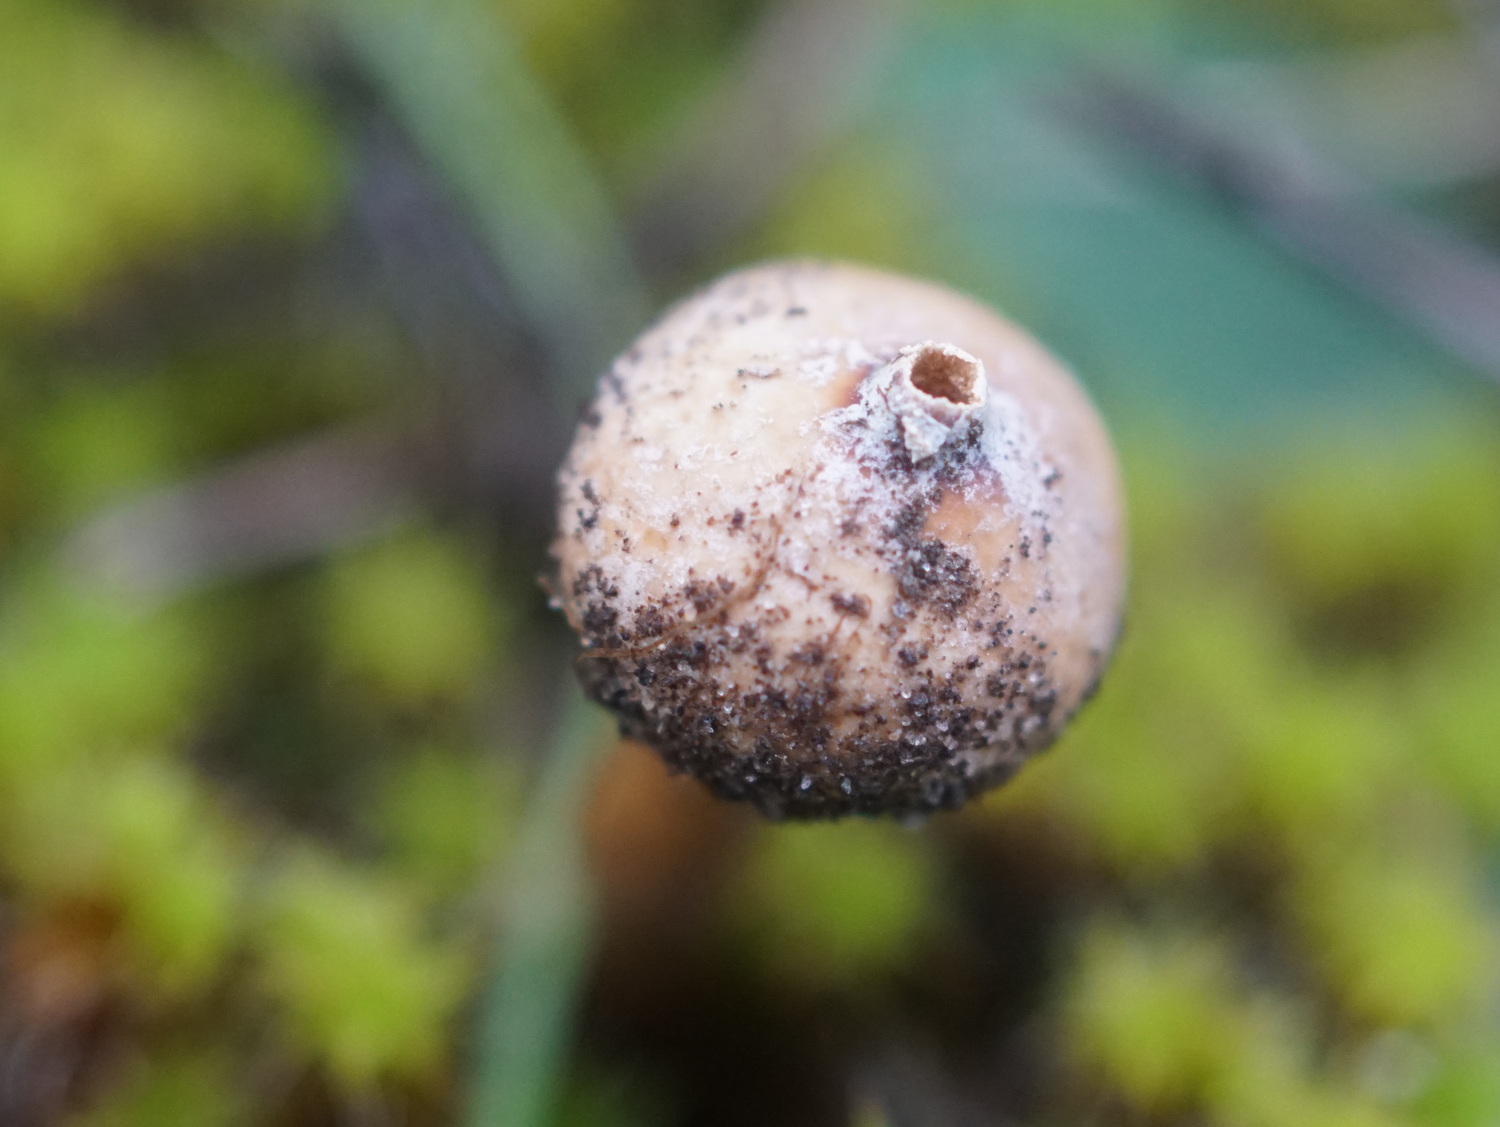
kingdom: Fungi
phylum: Basidiomycota
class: Agaricomycetes
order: Agaricales
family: Agaricaceae
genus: Tulostoma
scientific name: Tulostoma brumale
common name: vinter-stilkbovist
